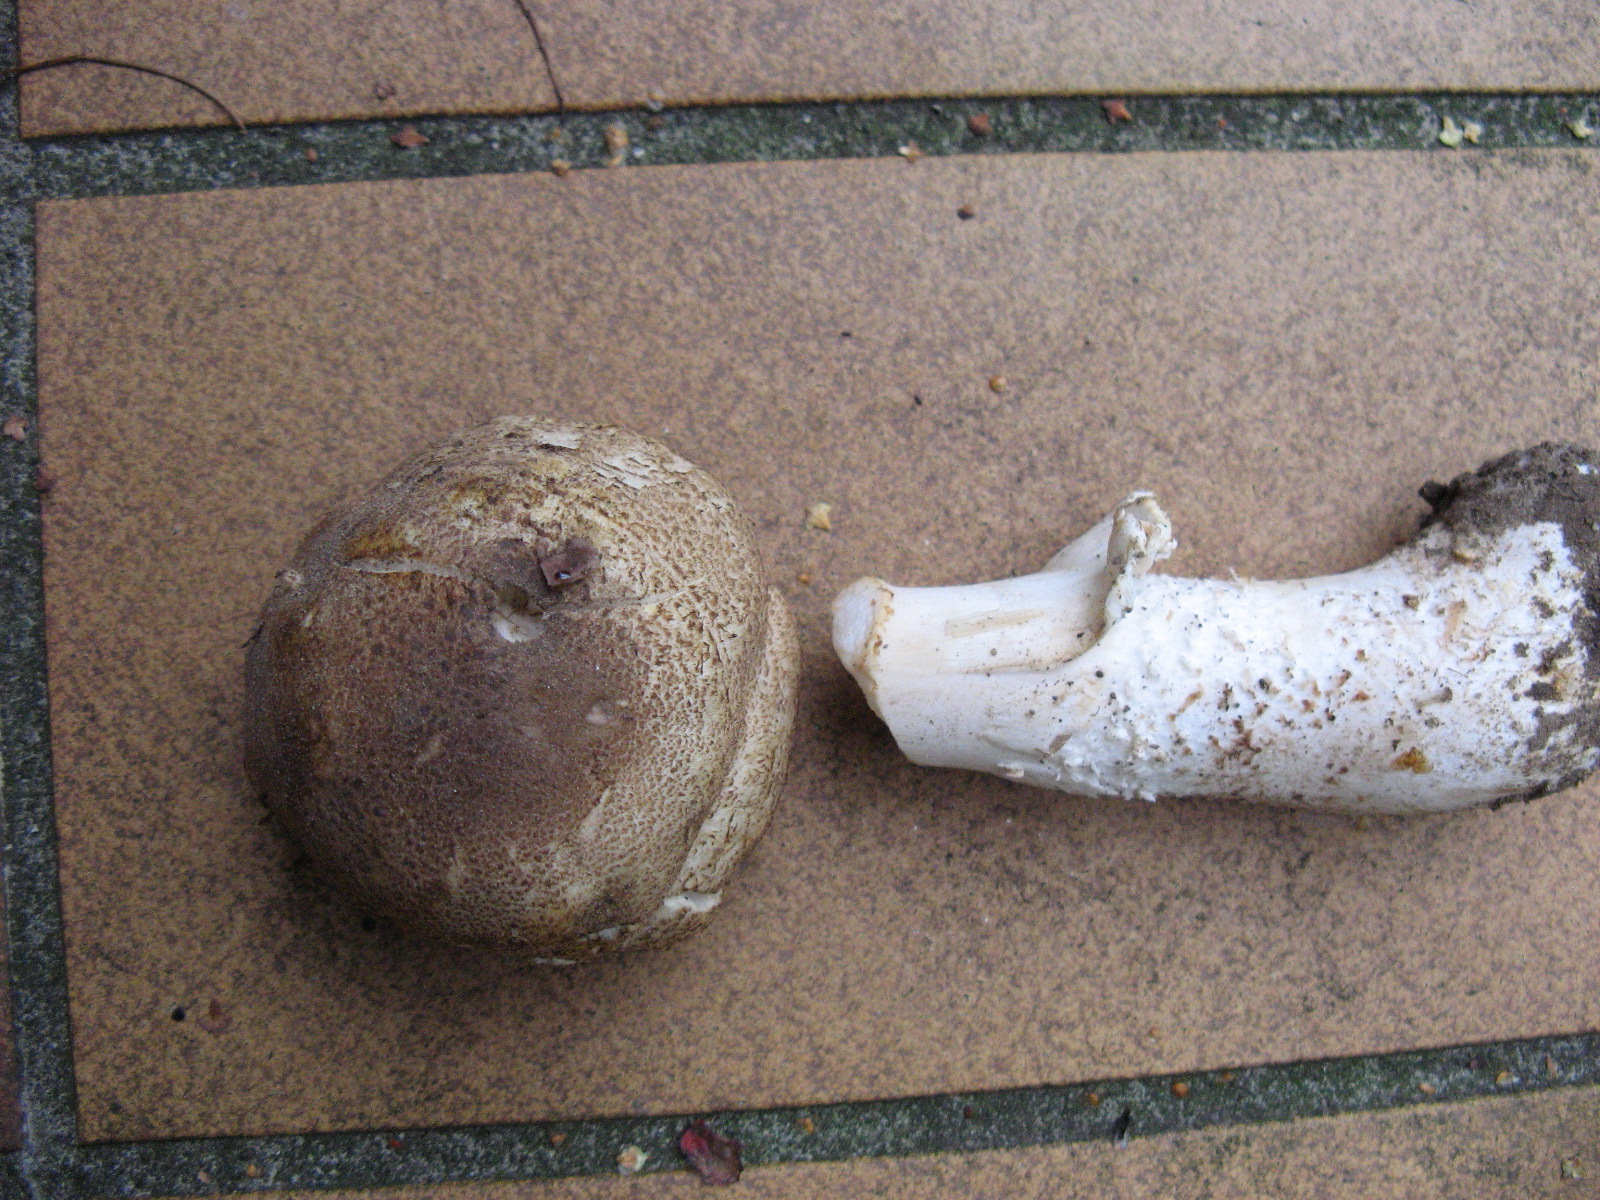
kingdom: Fungi
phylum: Basidiomycota
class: Agaricomycetes
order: Agaricales
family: Agaricaceae
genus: Agaricus
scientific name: Agaricus moelleri
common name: perlehøne-champignon
